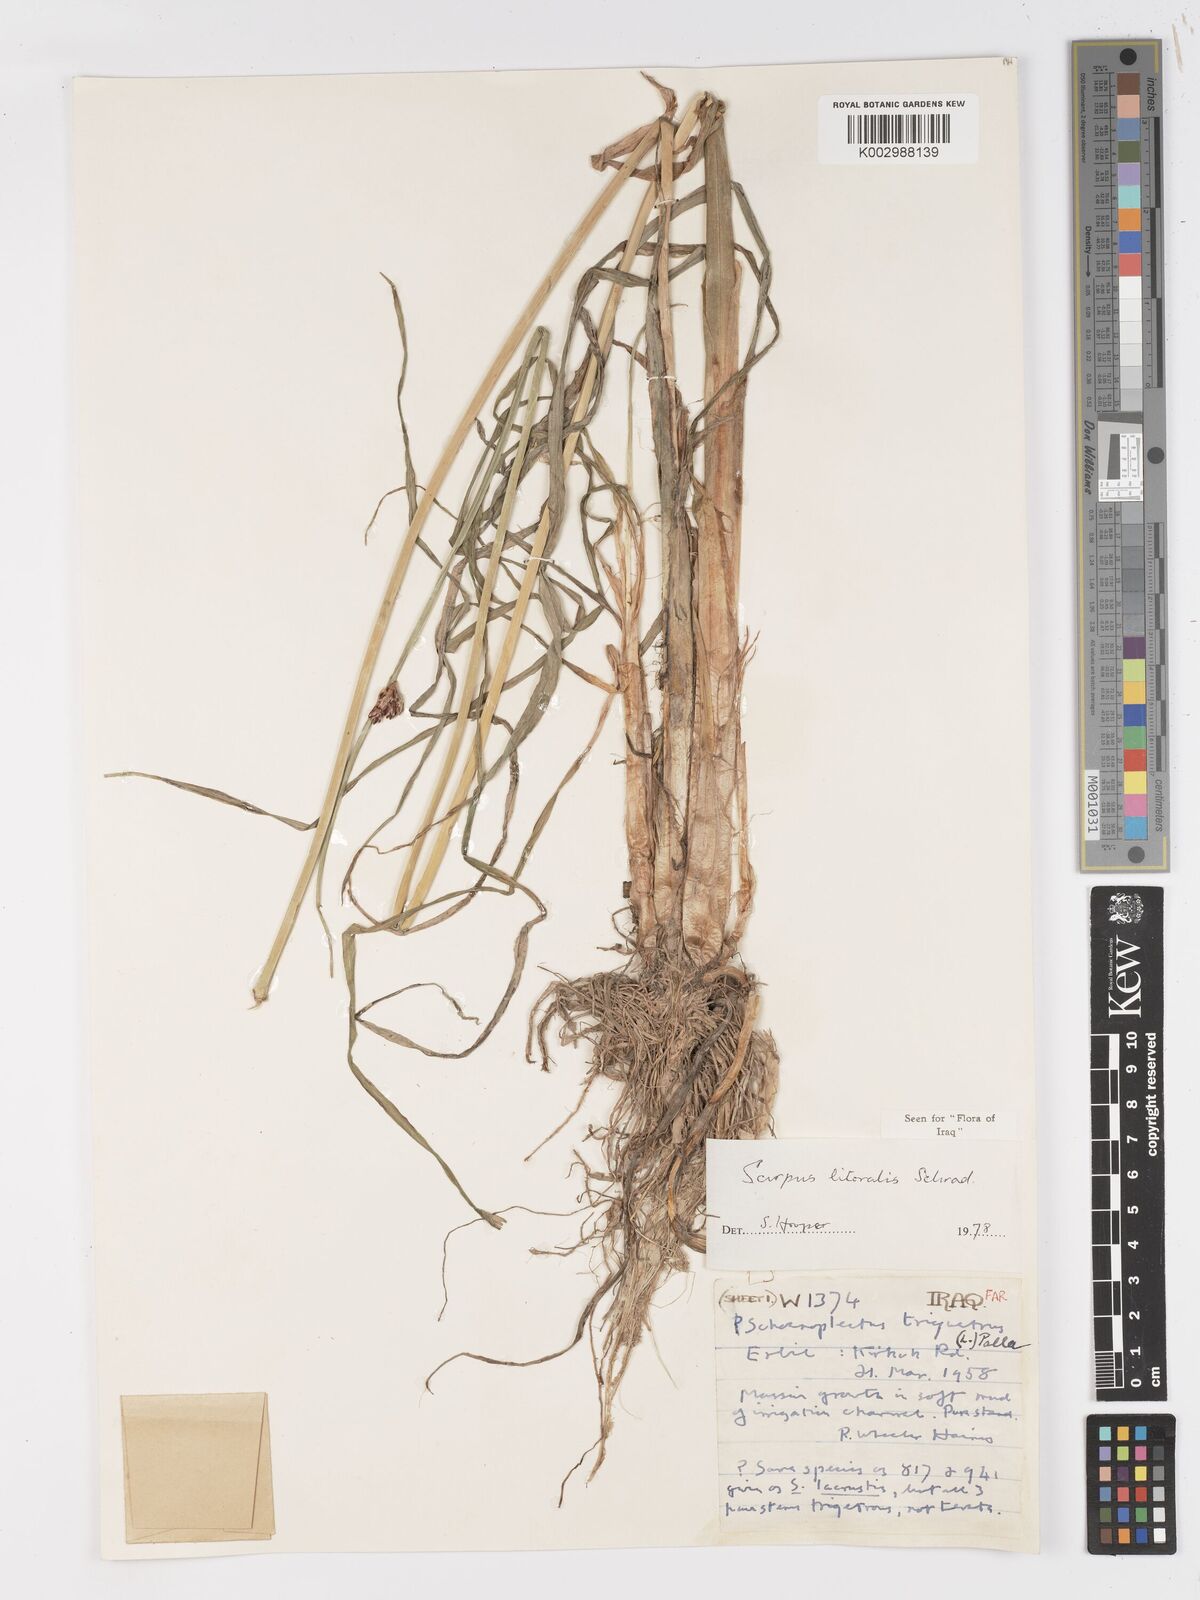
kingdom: Plantae
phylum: Tracheophyta
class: Liliopsida
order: Poales
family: Cyperaceae
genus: Schoenoplectus
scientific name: Schoenoplectus litoralis
